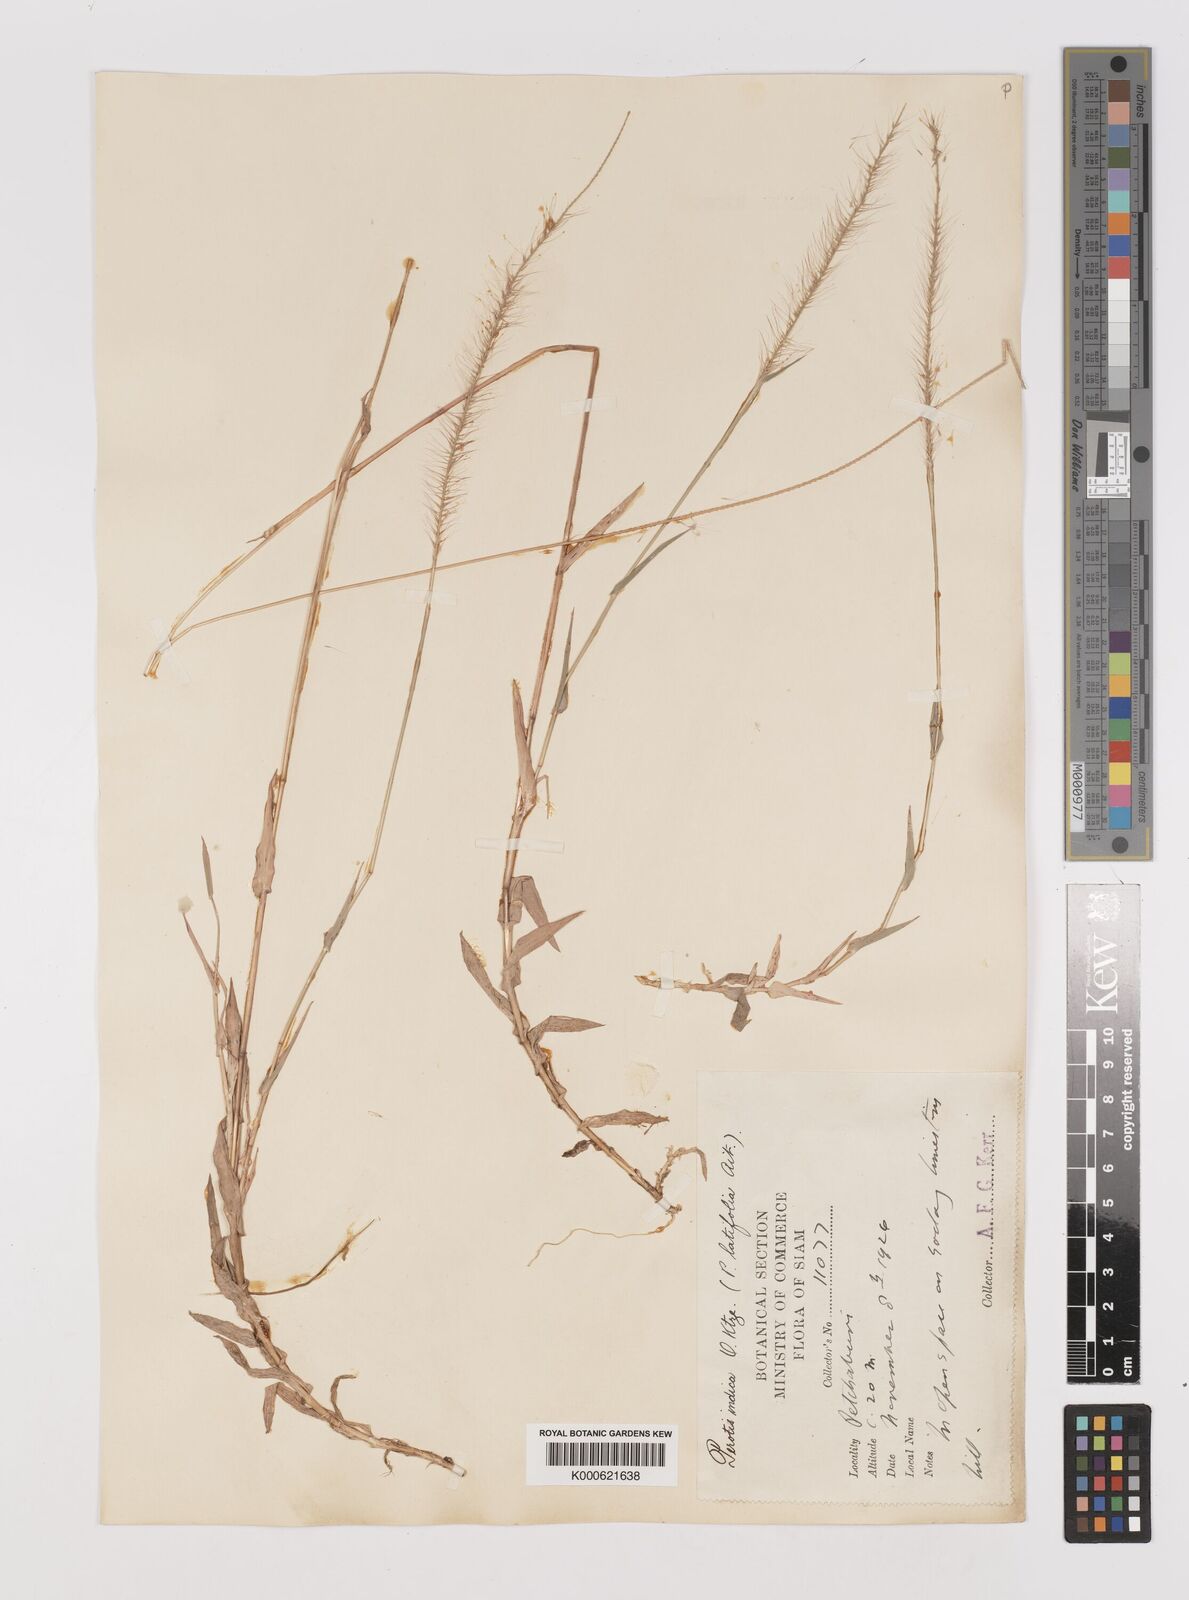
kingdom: Plantae
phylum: Tracheophyta
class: Liliopsida
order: Poales
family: Poaceae
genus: Perotis
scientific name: Perotis hordeiformis
